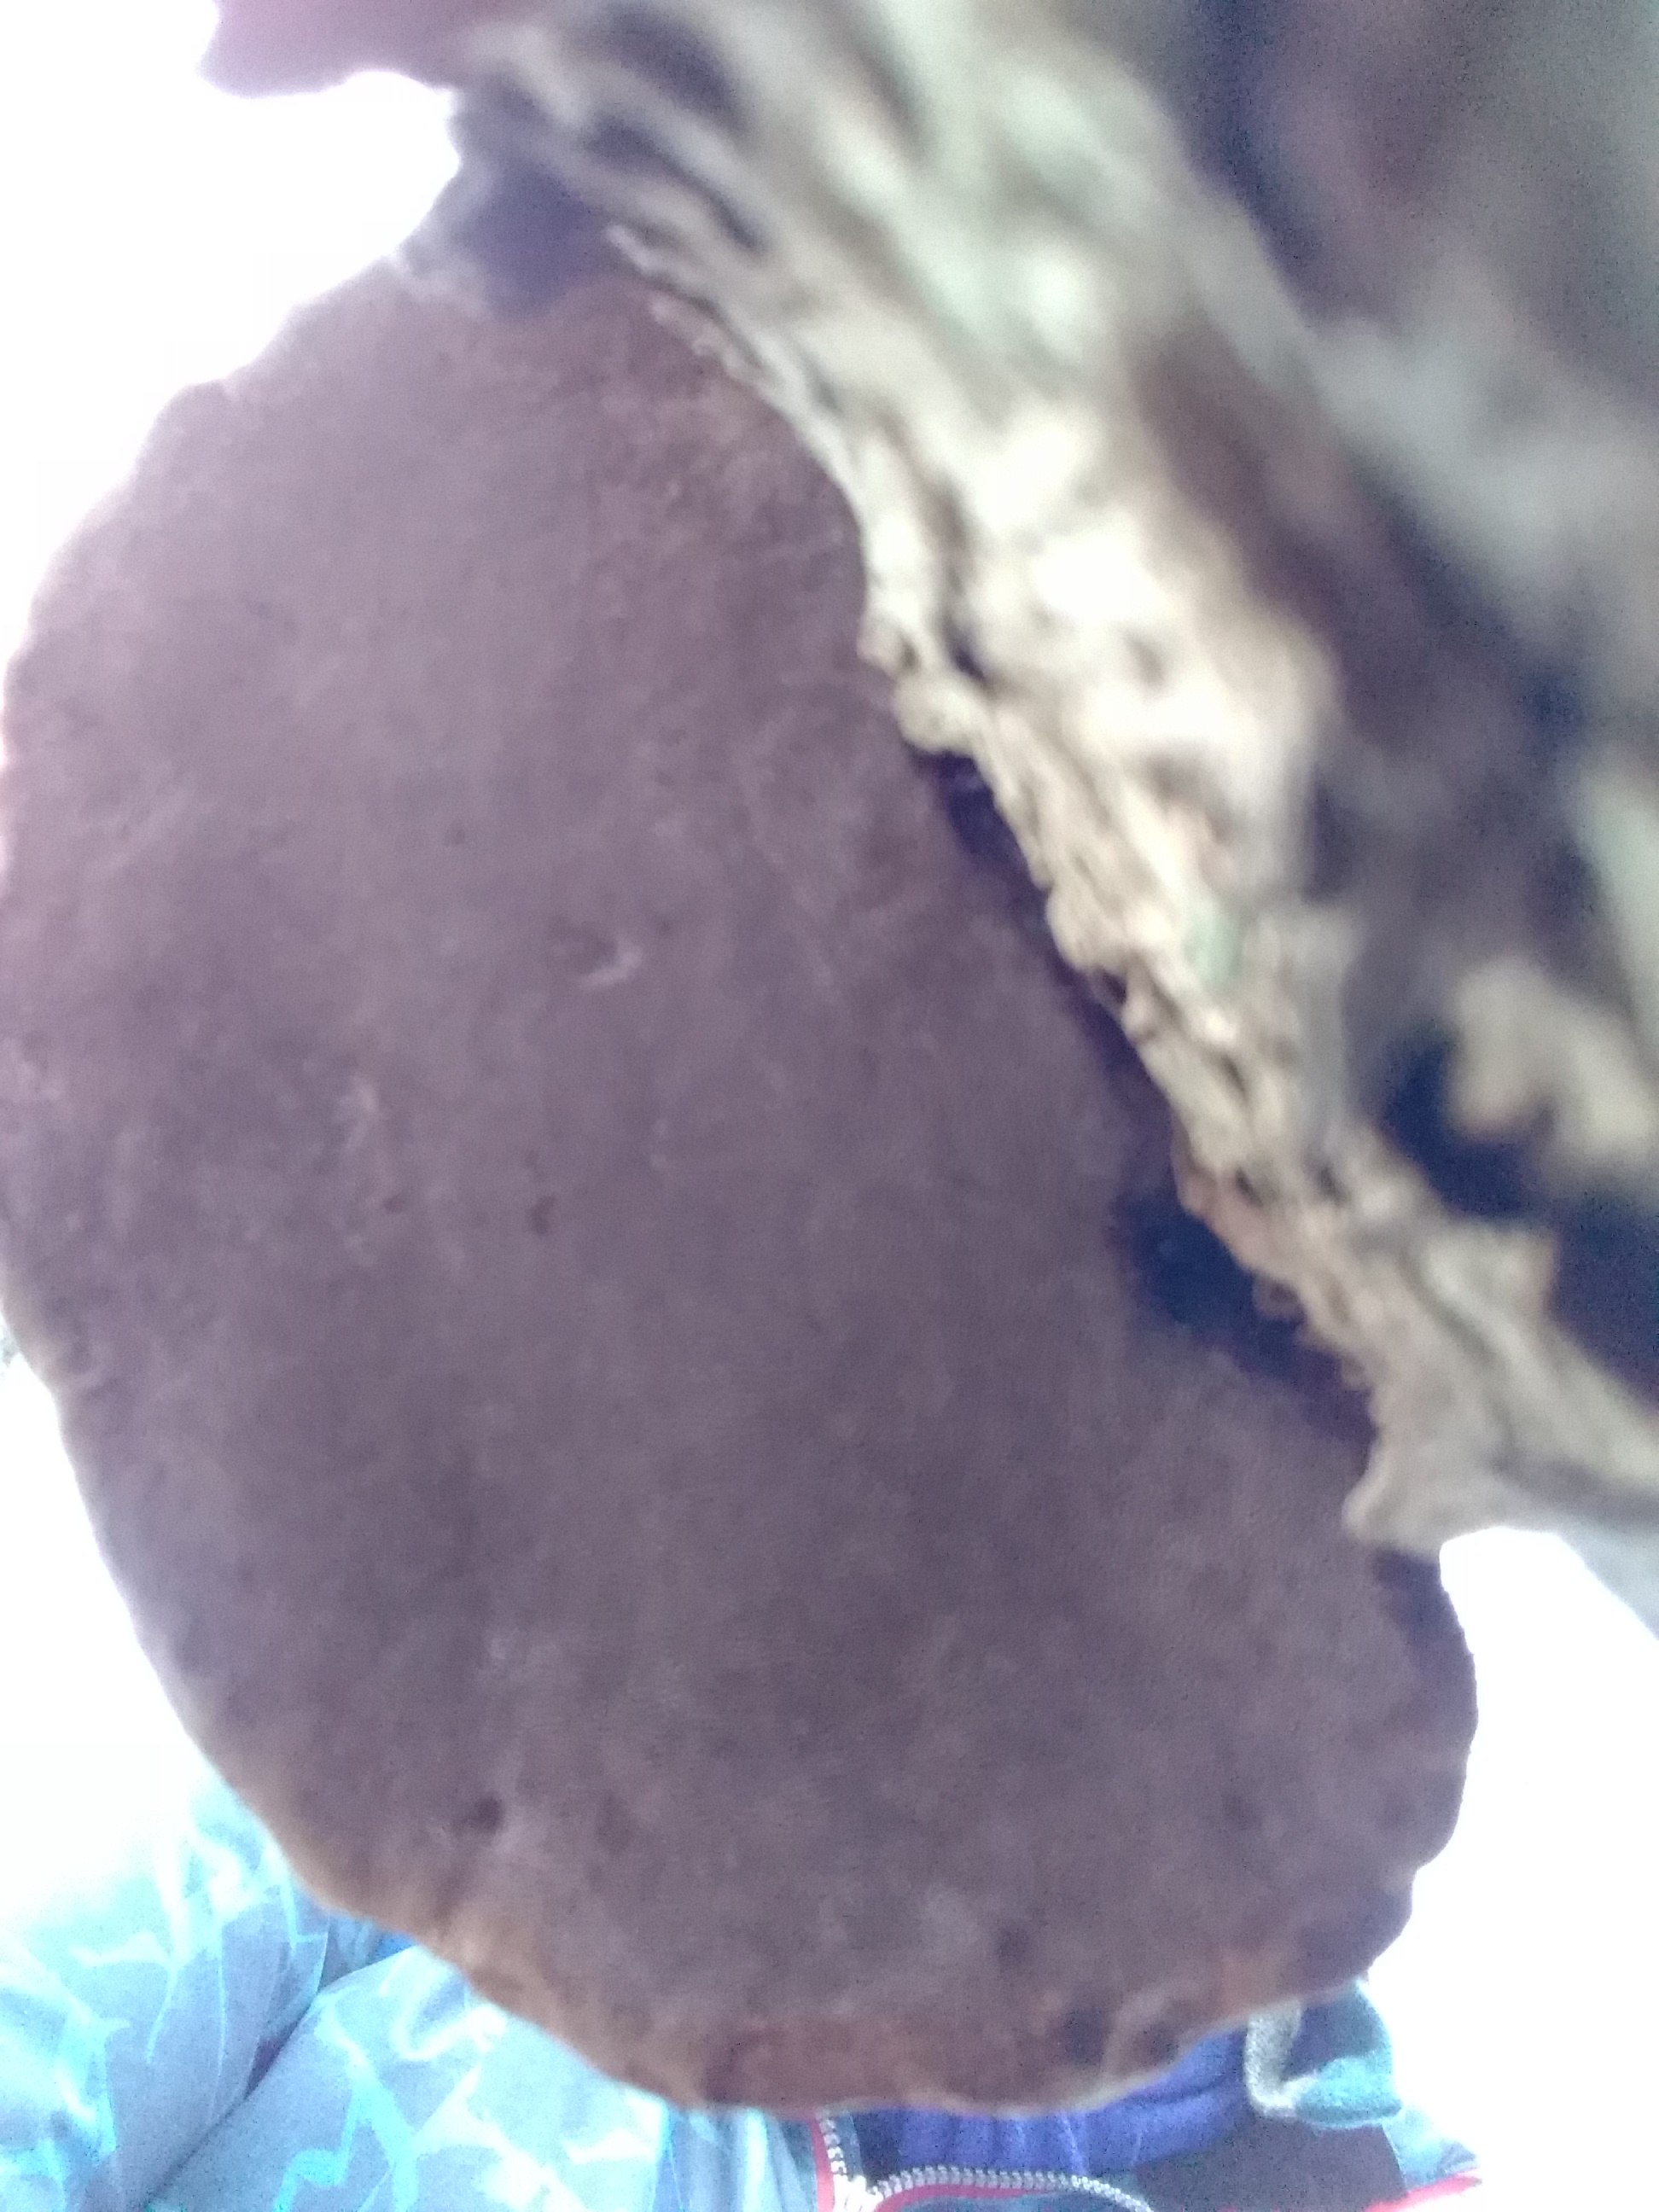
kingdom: Fungi
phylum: Basidiomycota
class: Agaricomycetes
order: Polyporales
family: Polyporaceae
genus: Fomes
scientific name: Fomes fomentarius
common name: tøndersvamp
